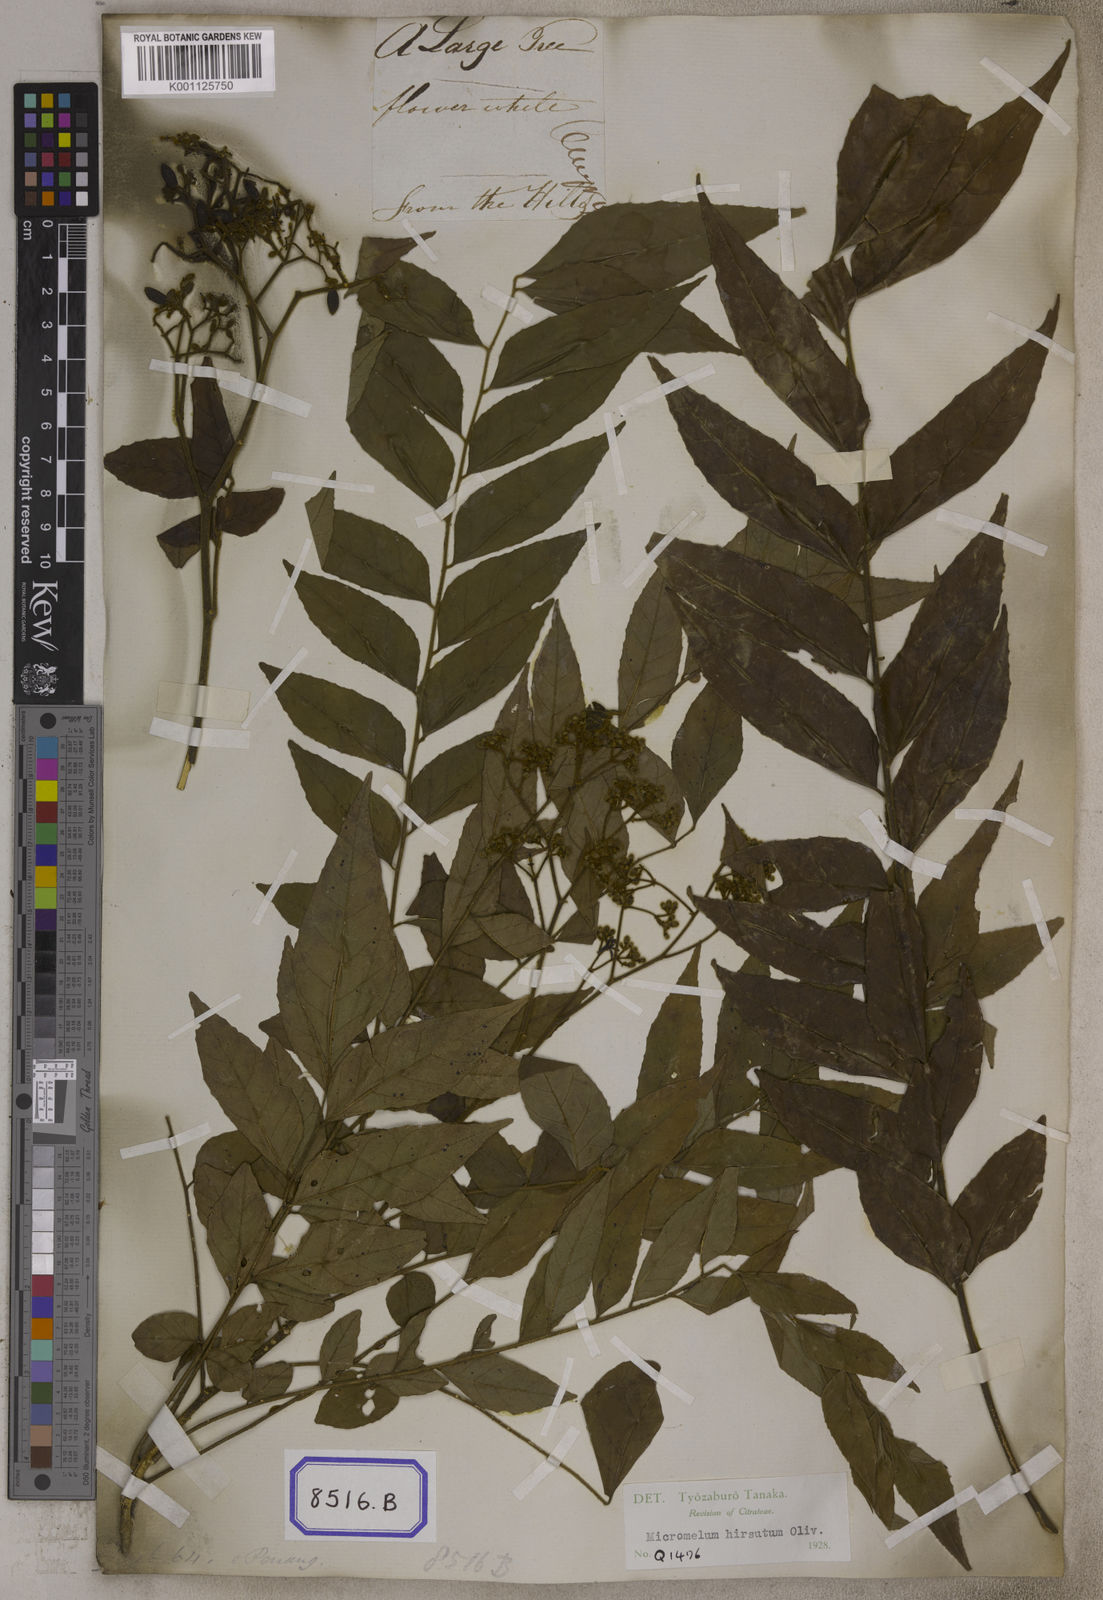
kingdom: Plantae
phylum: Tracheophyta
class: Magnoliopsida
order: Sapindales
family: Rutaceae
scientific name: Rutaceae
